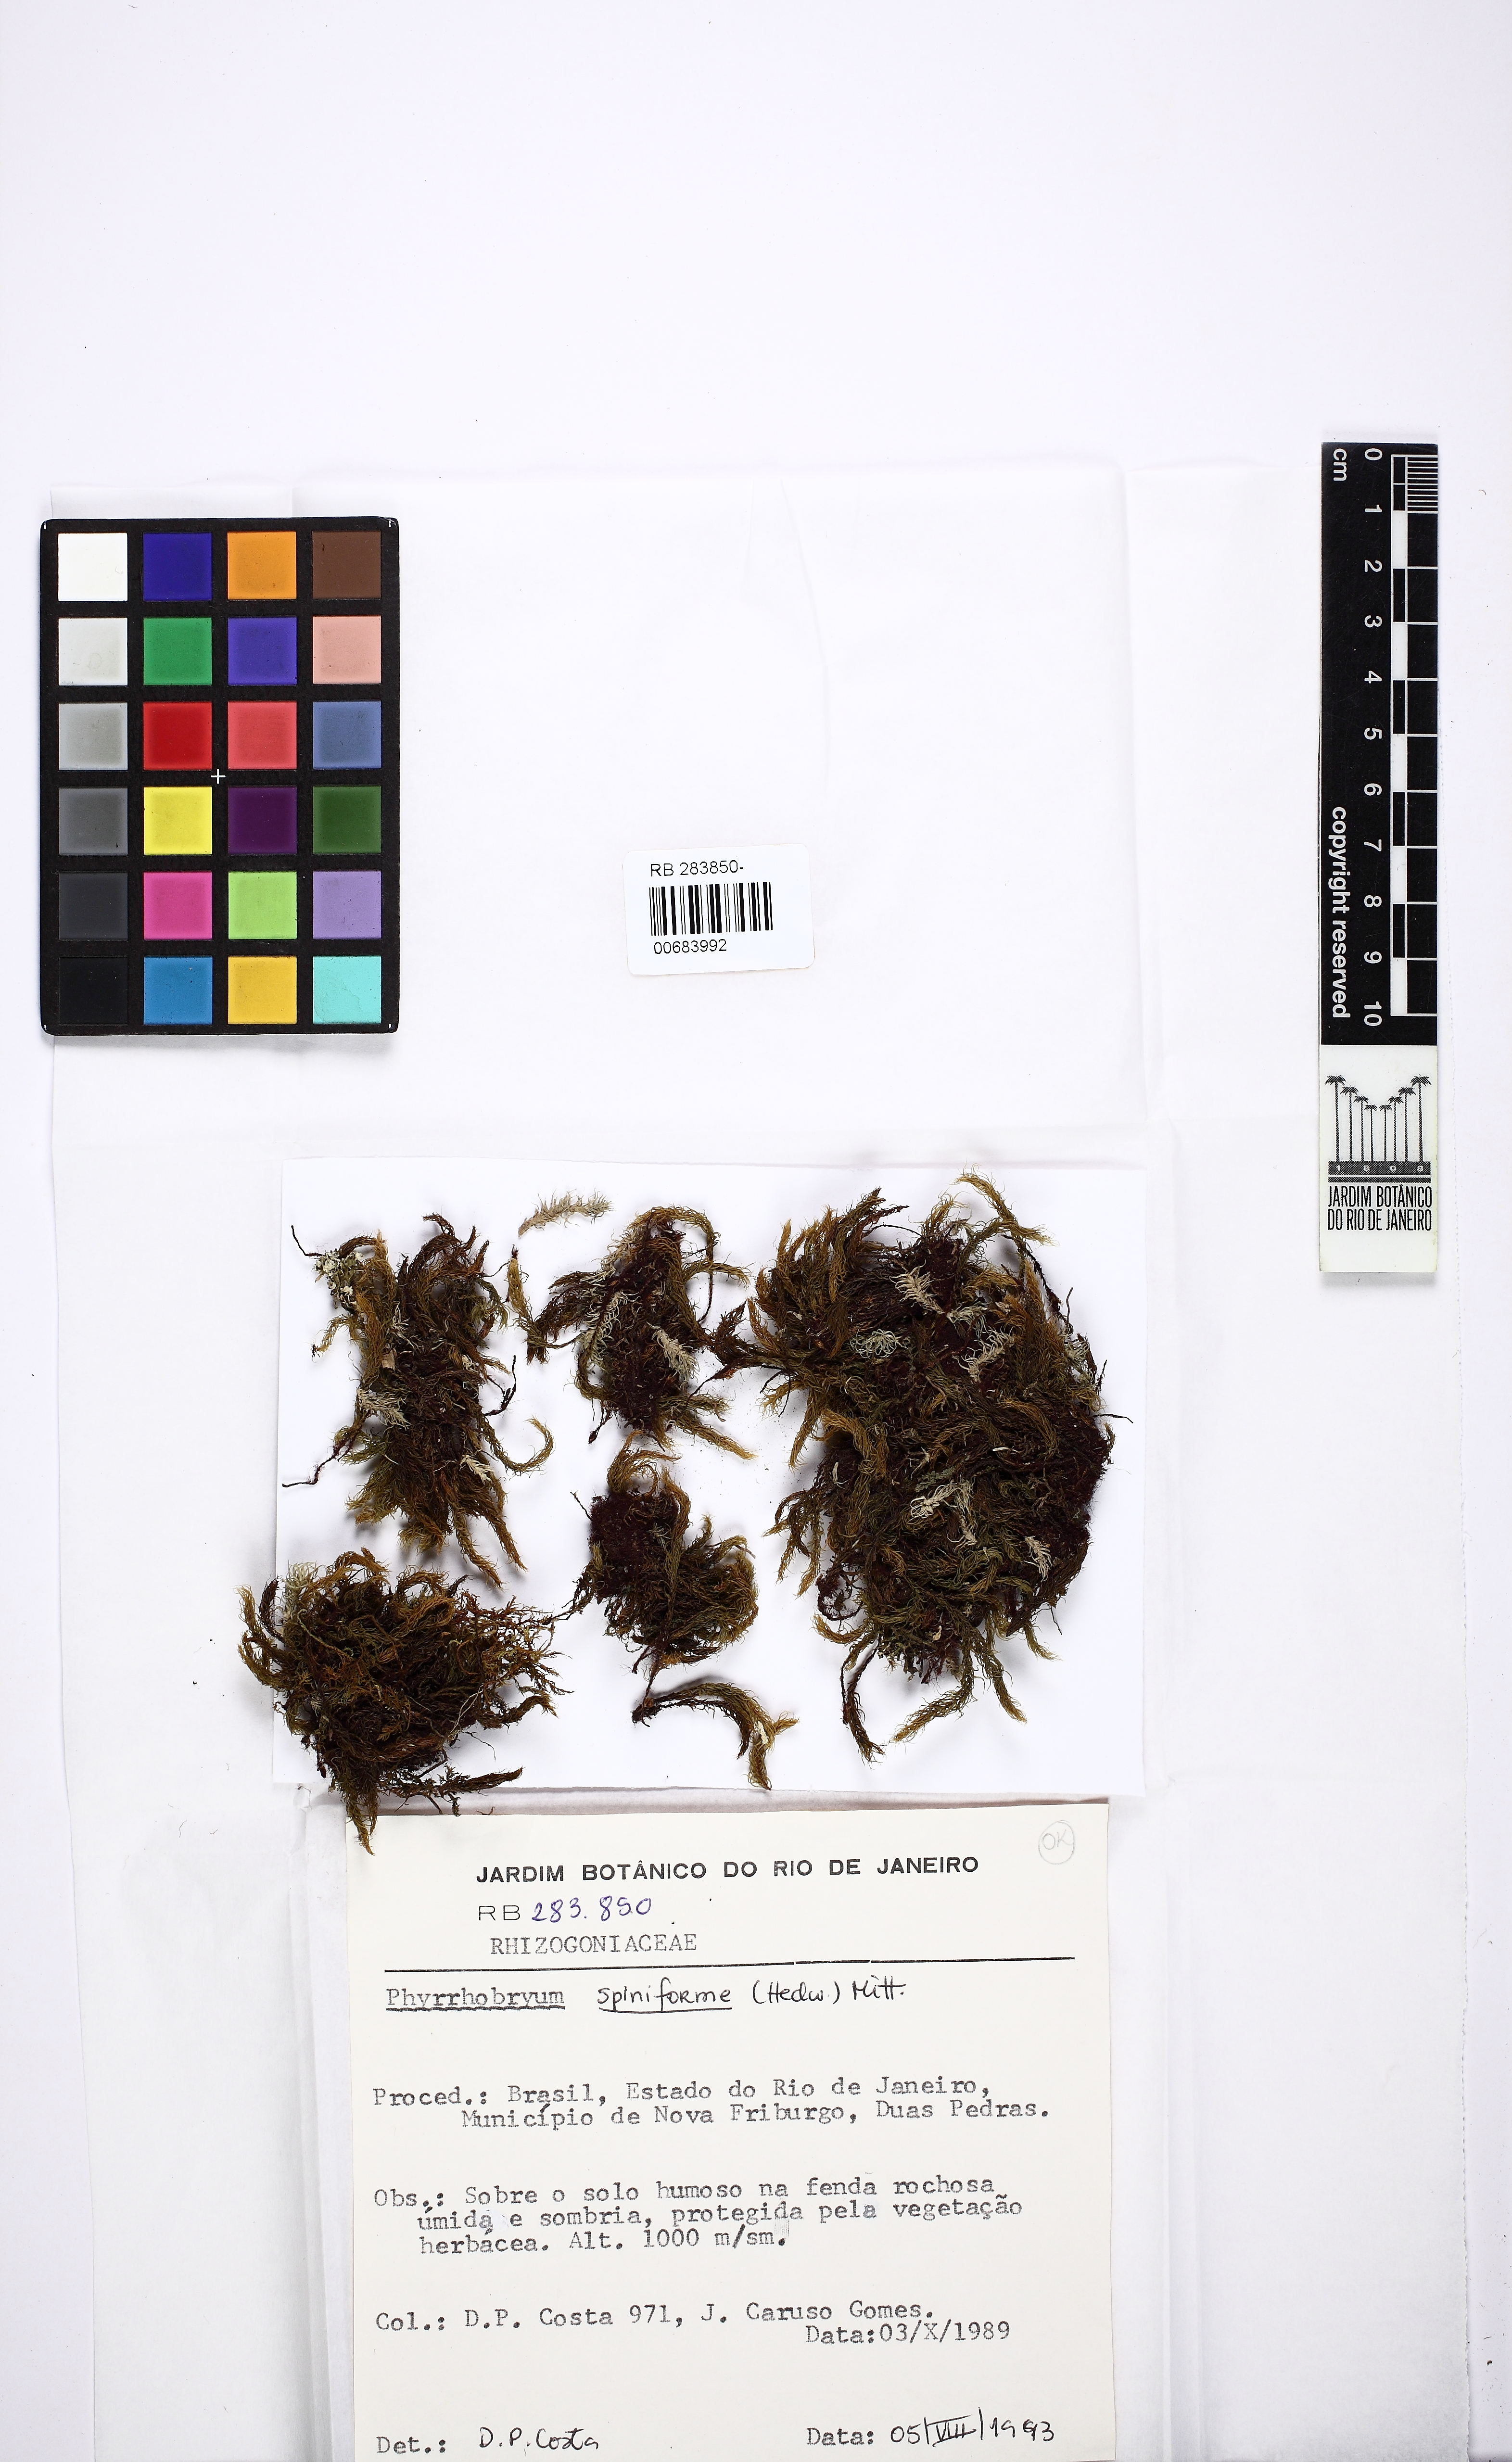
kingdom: Plantae
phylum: Bryophyta
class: Bryopsida
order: Rhizogoniales
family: Calomniaceae
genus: Pyrrhobryum
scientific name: Pyrrhobryum spiniforme
